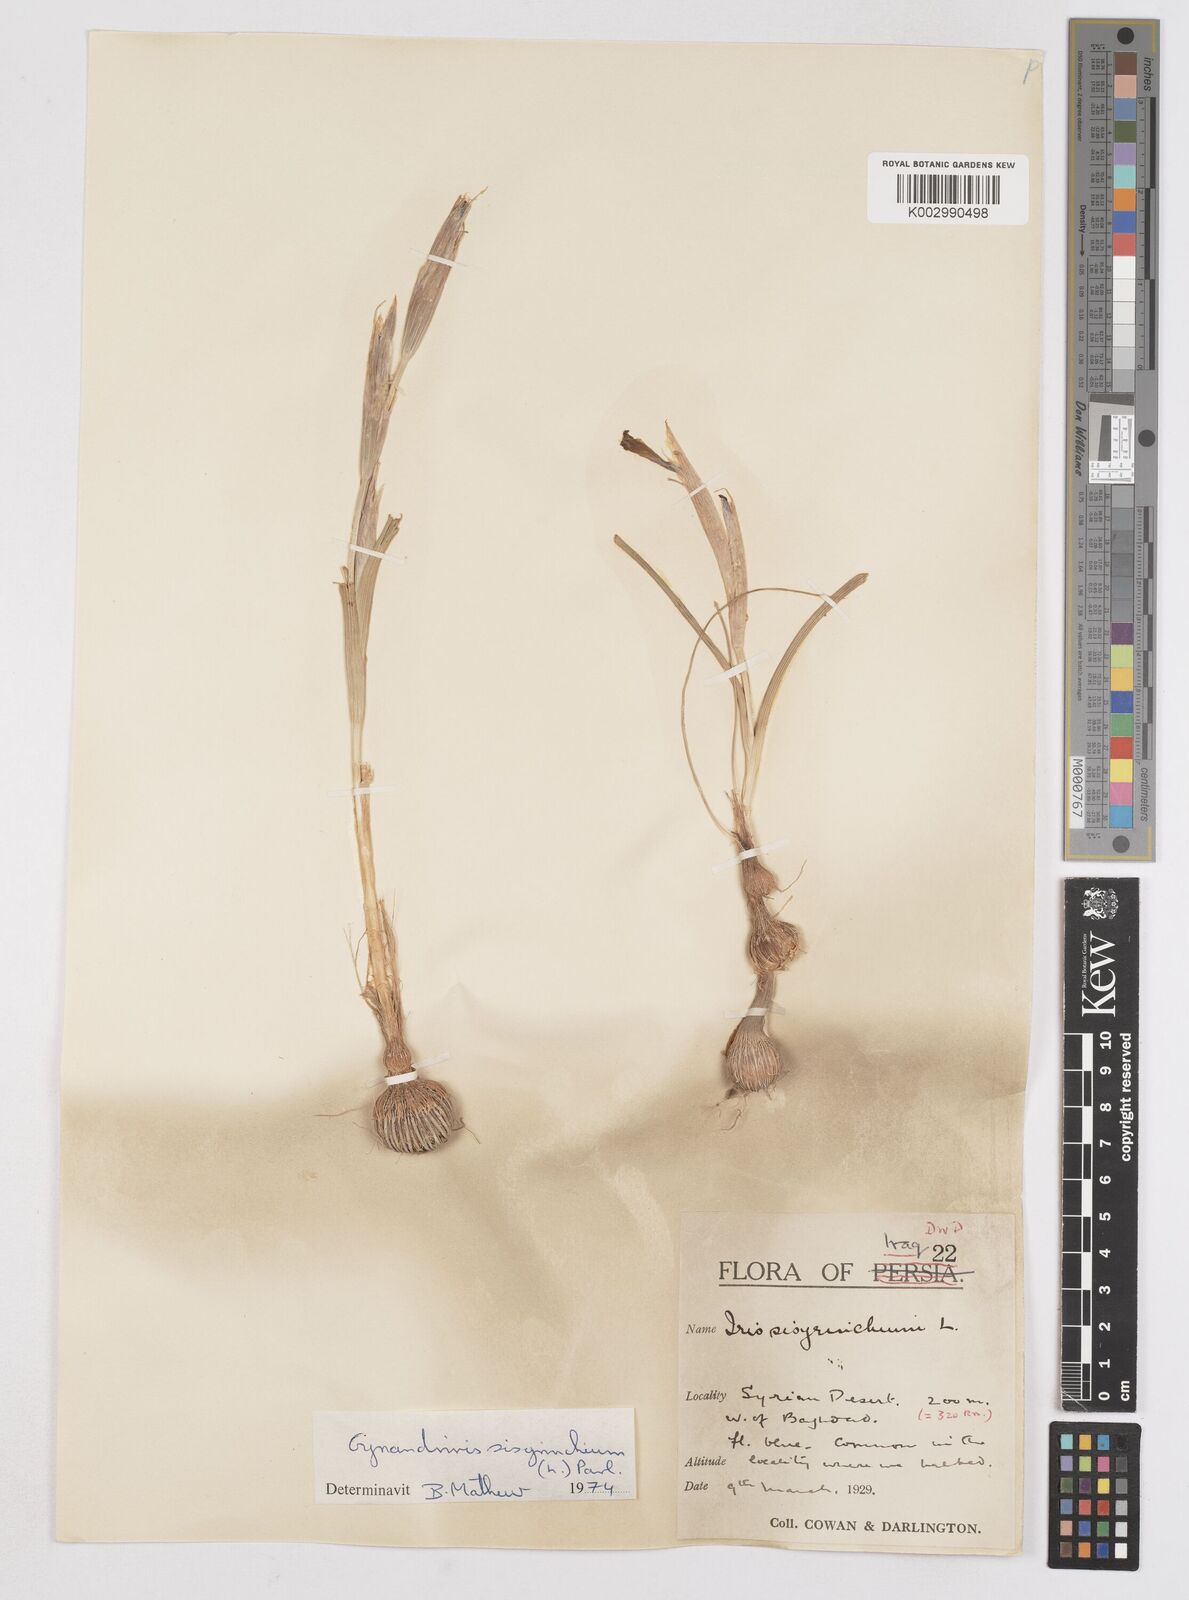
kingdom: Plantae
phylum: Tracheophyta
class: Liliopsida
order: Asparagales
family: Iridaceae
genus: Moraea
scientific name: Moraea sisyrinchium
